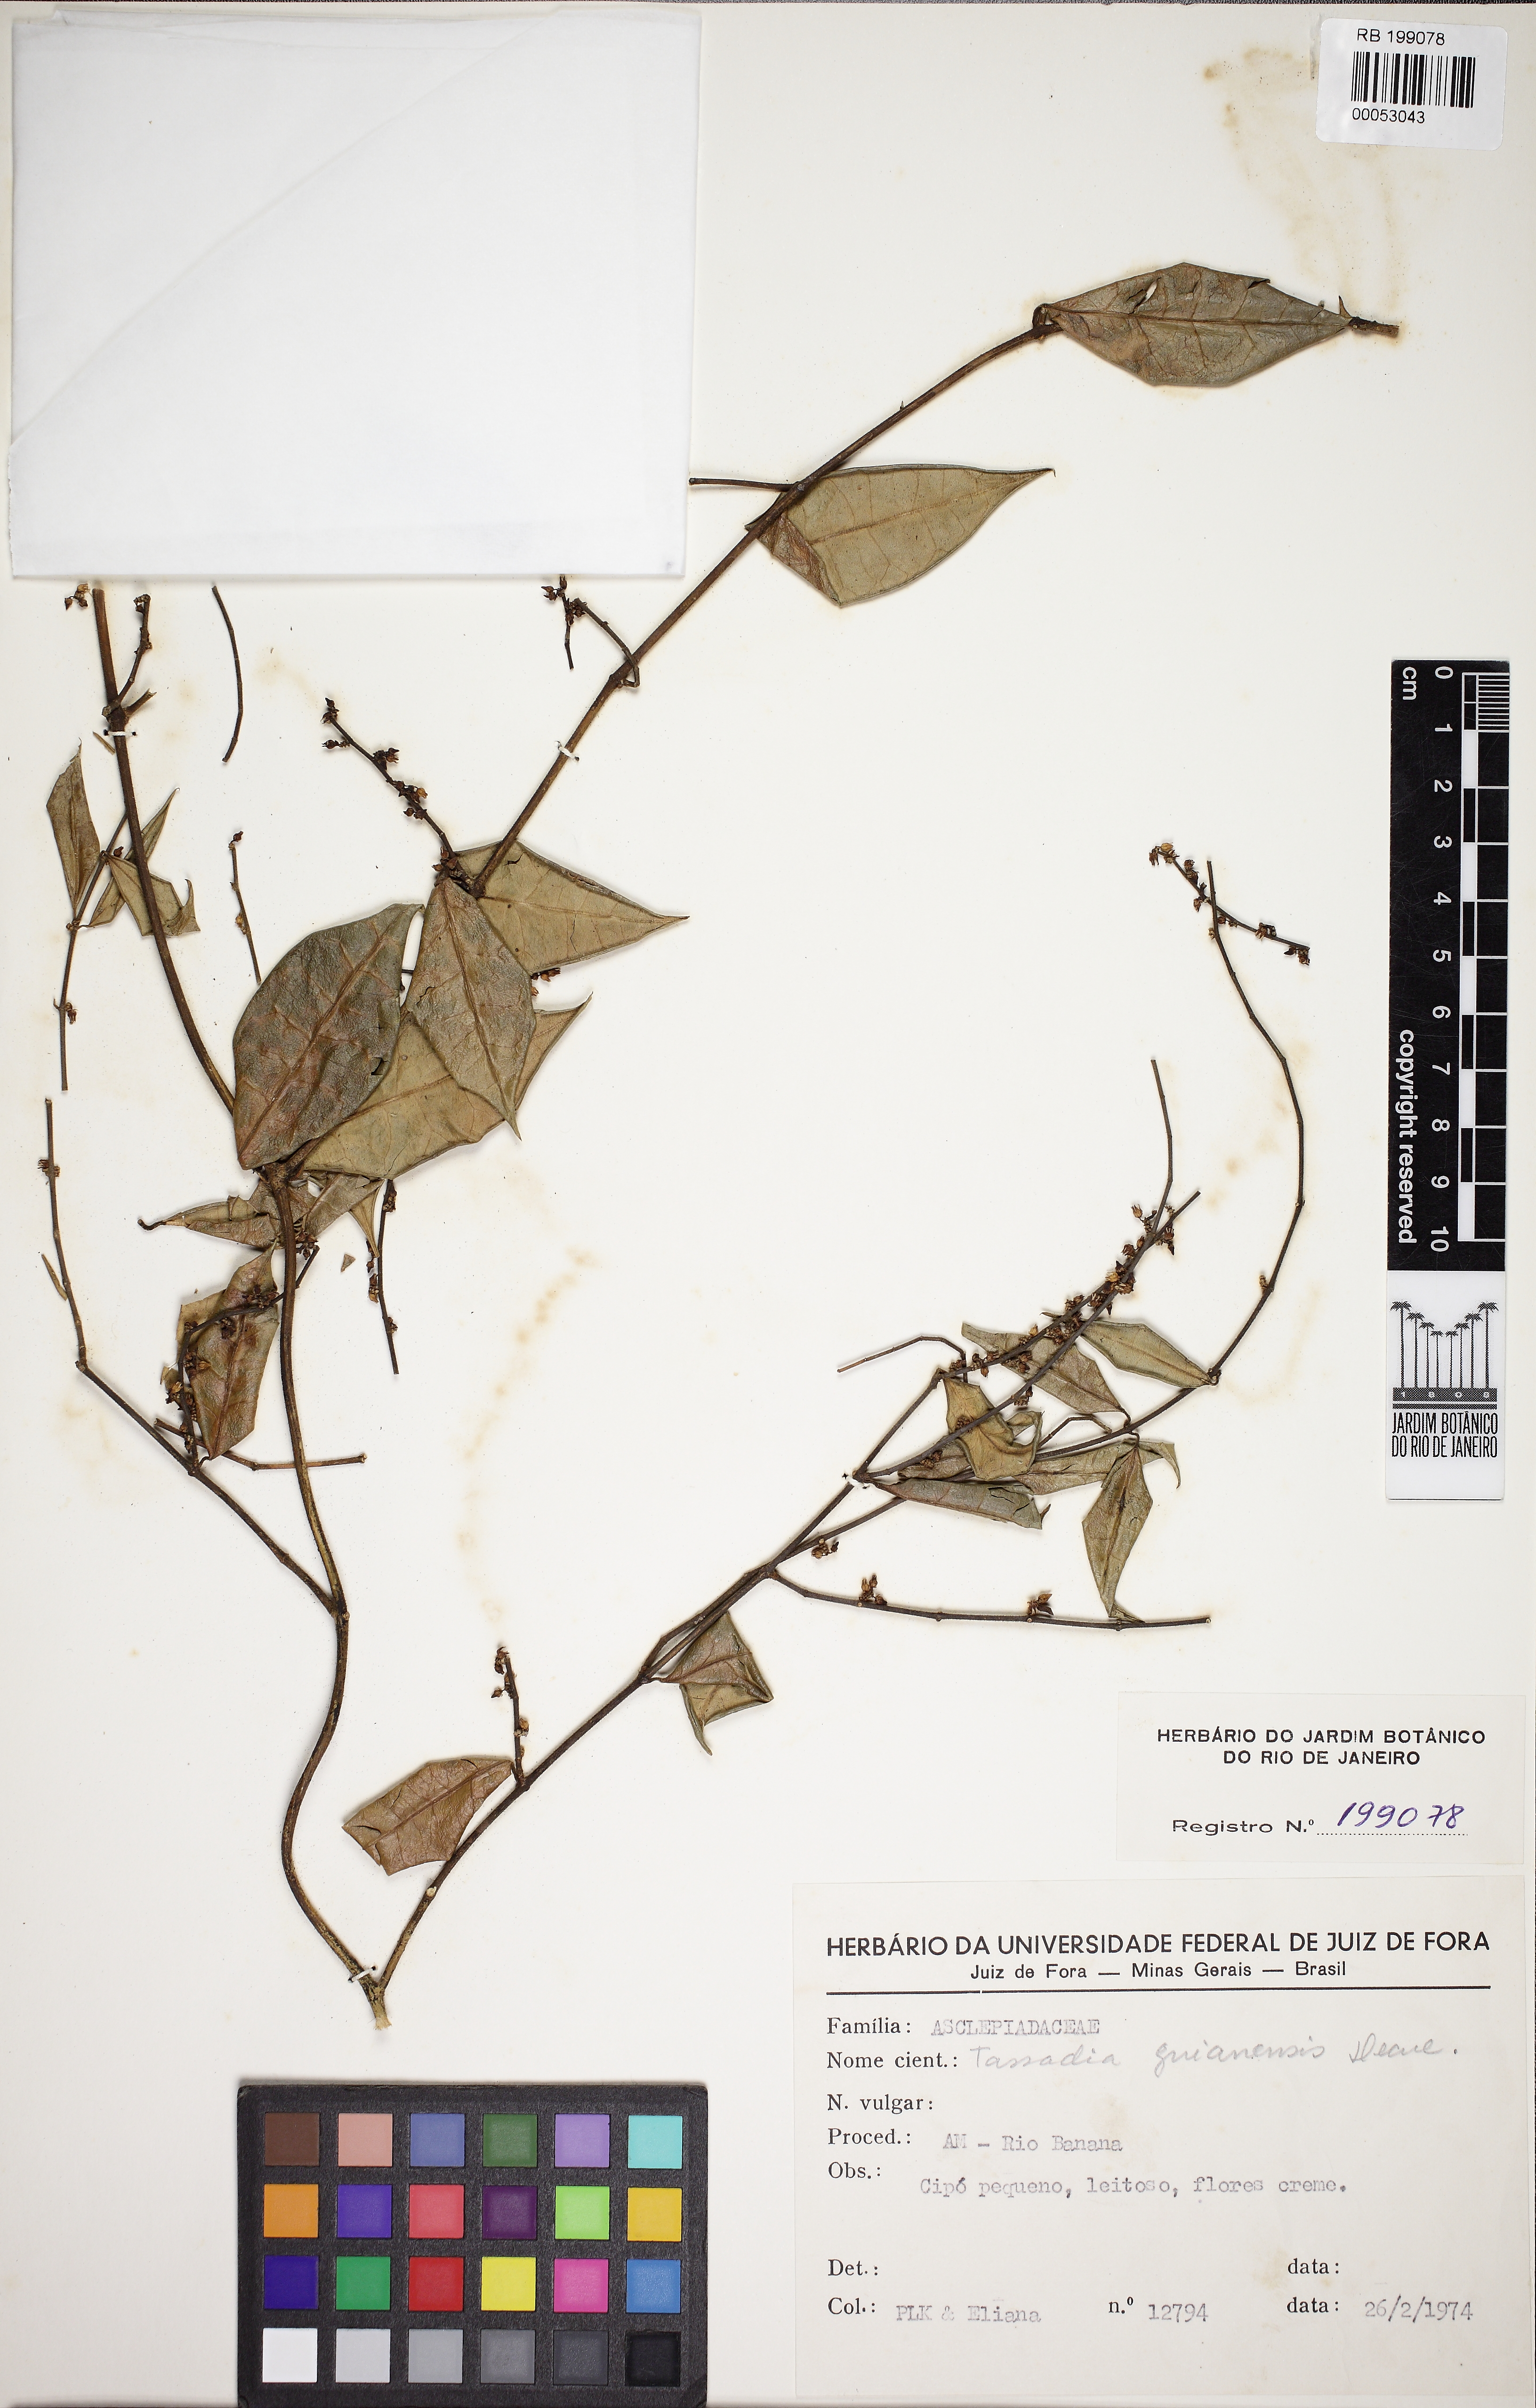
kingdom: Plantae
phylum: Tracheophyta
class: Magnoliopsida
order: Gentianales
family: Apocynaceae
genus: Tassadia
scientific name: Tassadia guianensis
